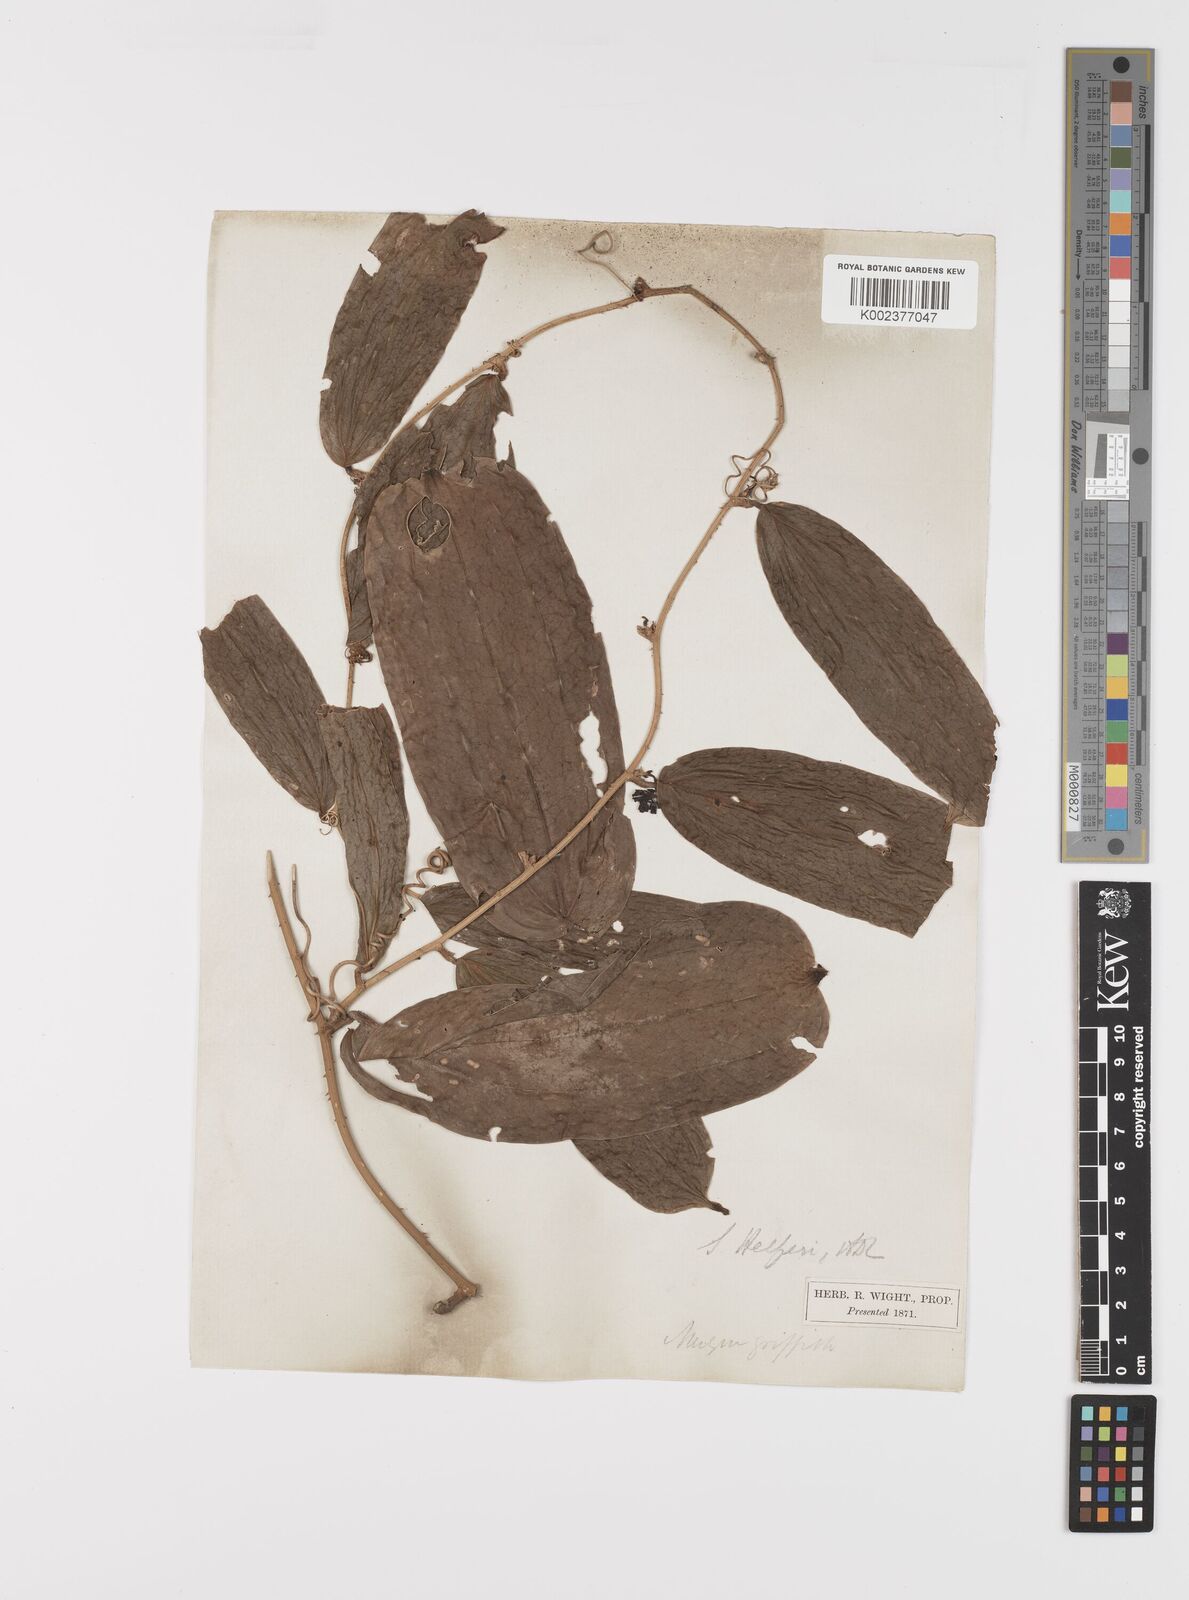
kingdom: Plantae
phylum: Tracheophyta
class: Liliopsida
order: Liliales
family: Smilacaceae
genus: Smilax
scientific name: Smilax luzonensis
